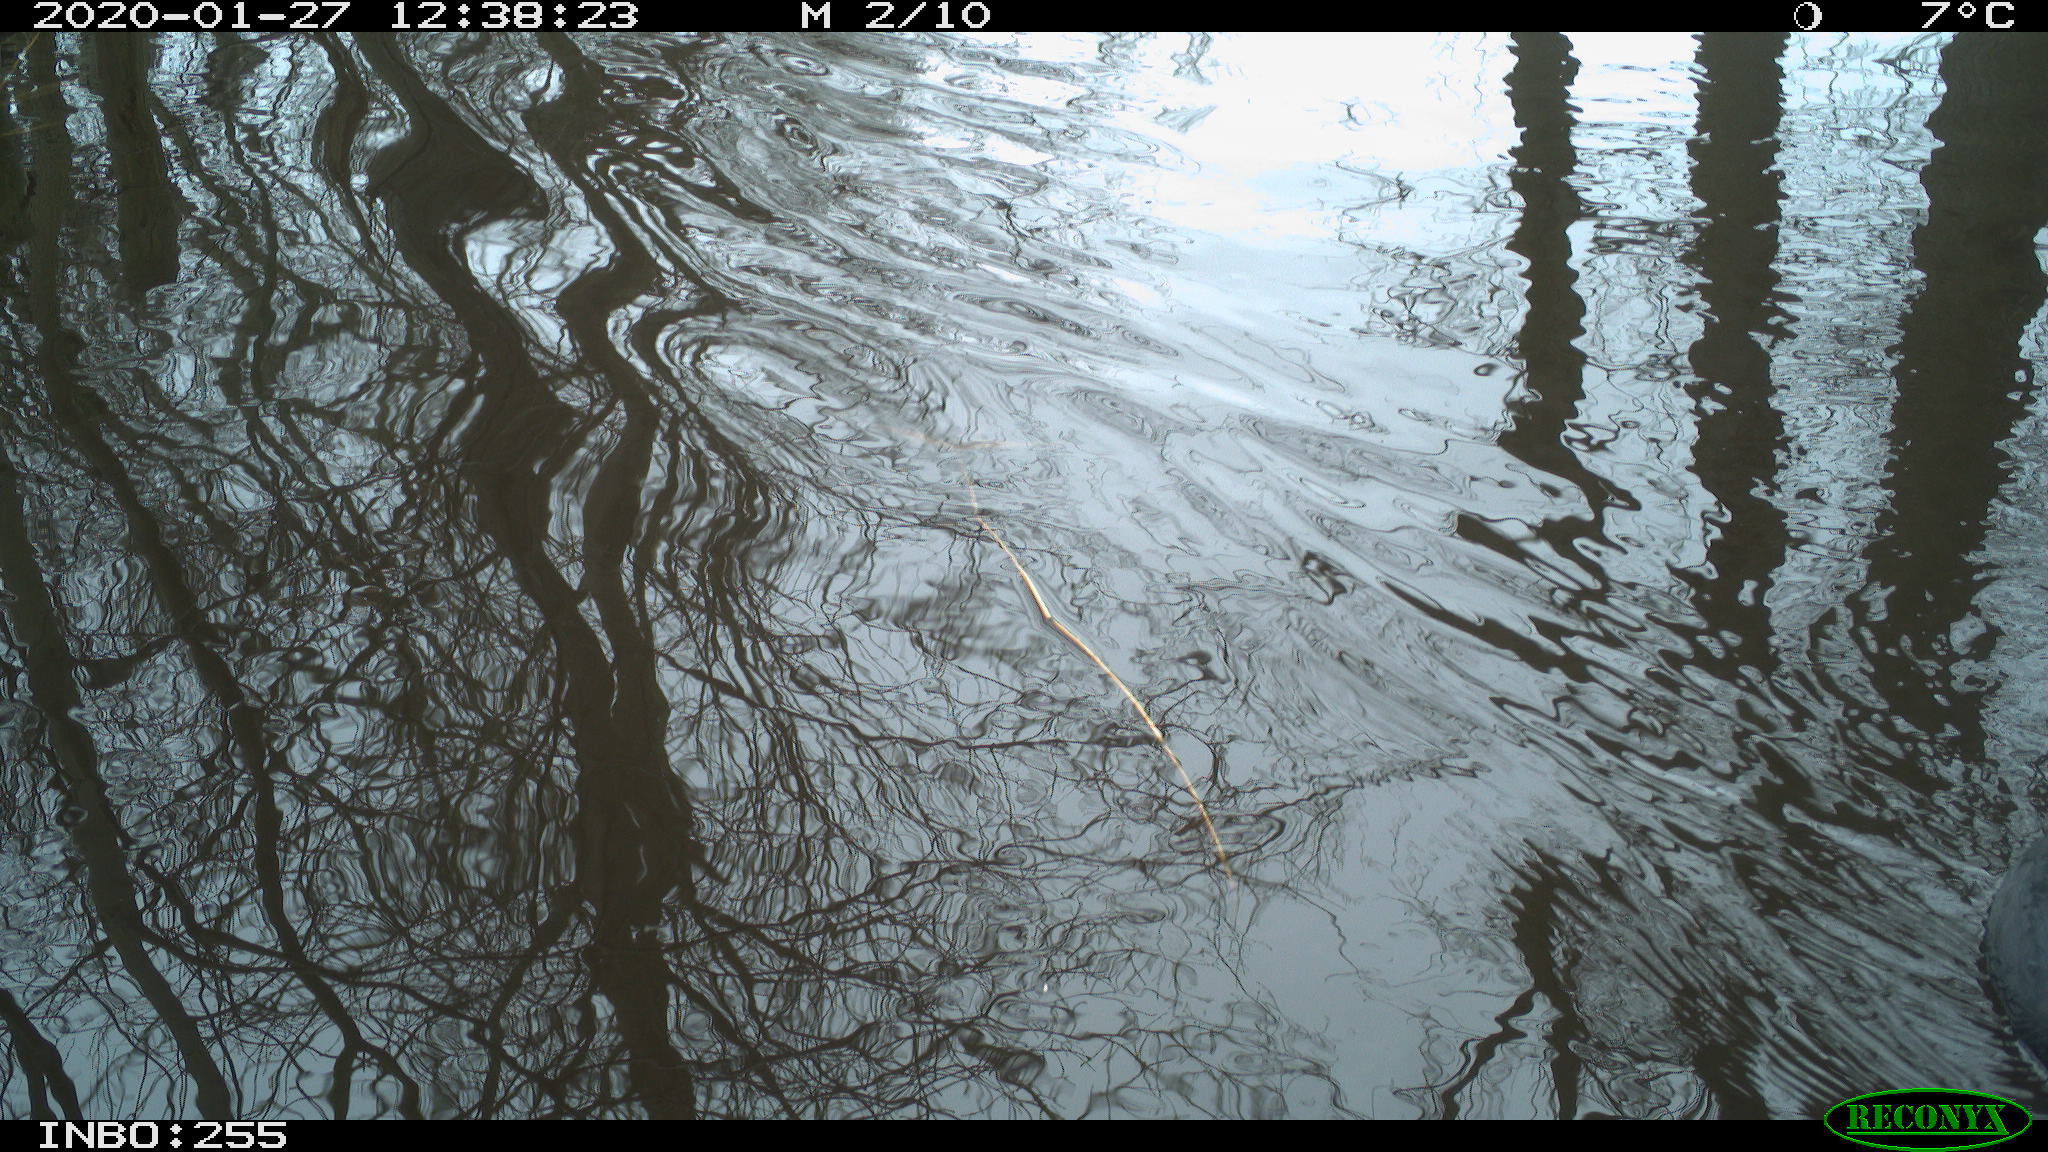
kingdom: Animalia
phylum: Chordata
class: Aves
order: Gruiformes
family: Rallidae
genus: Fulica
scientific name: Fulica atra
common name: Eurasian coot
